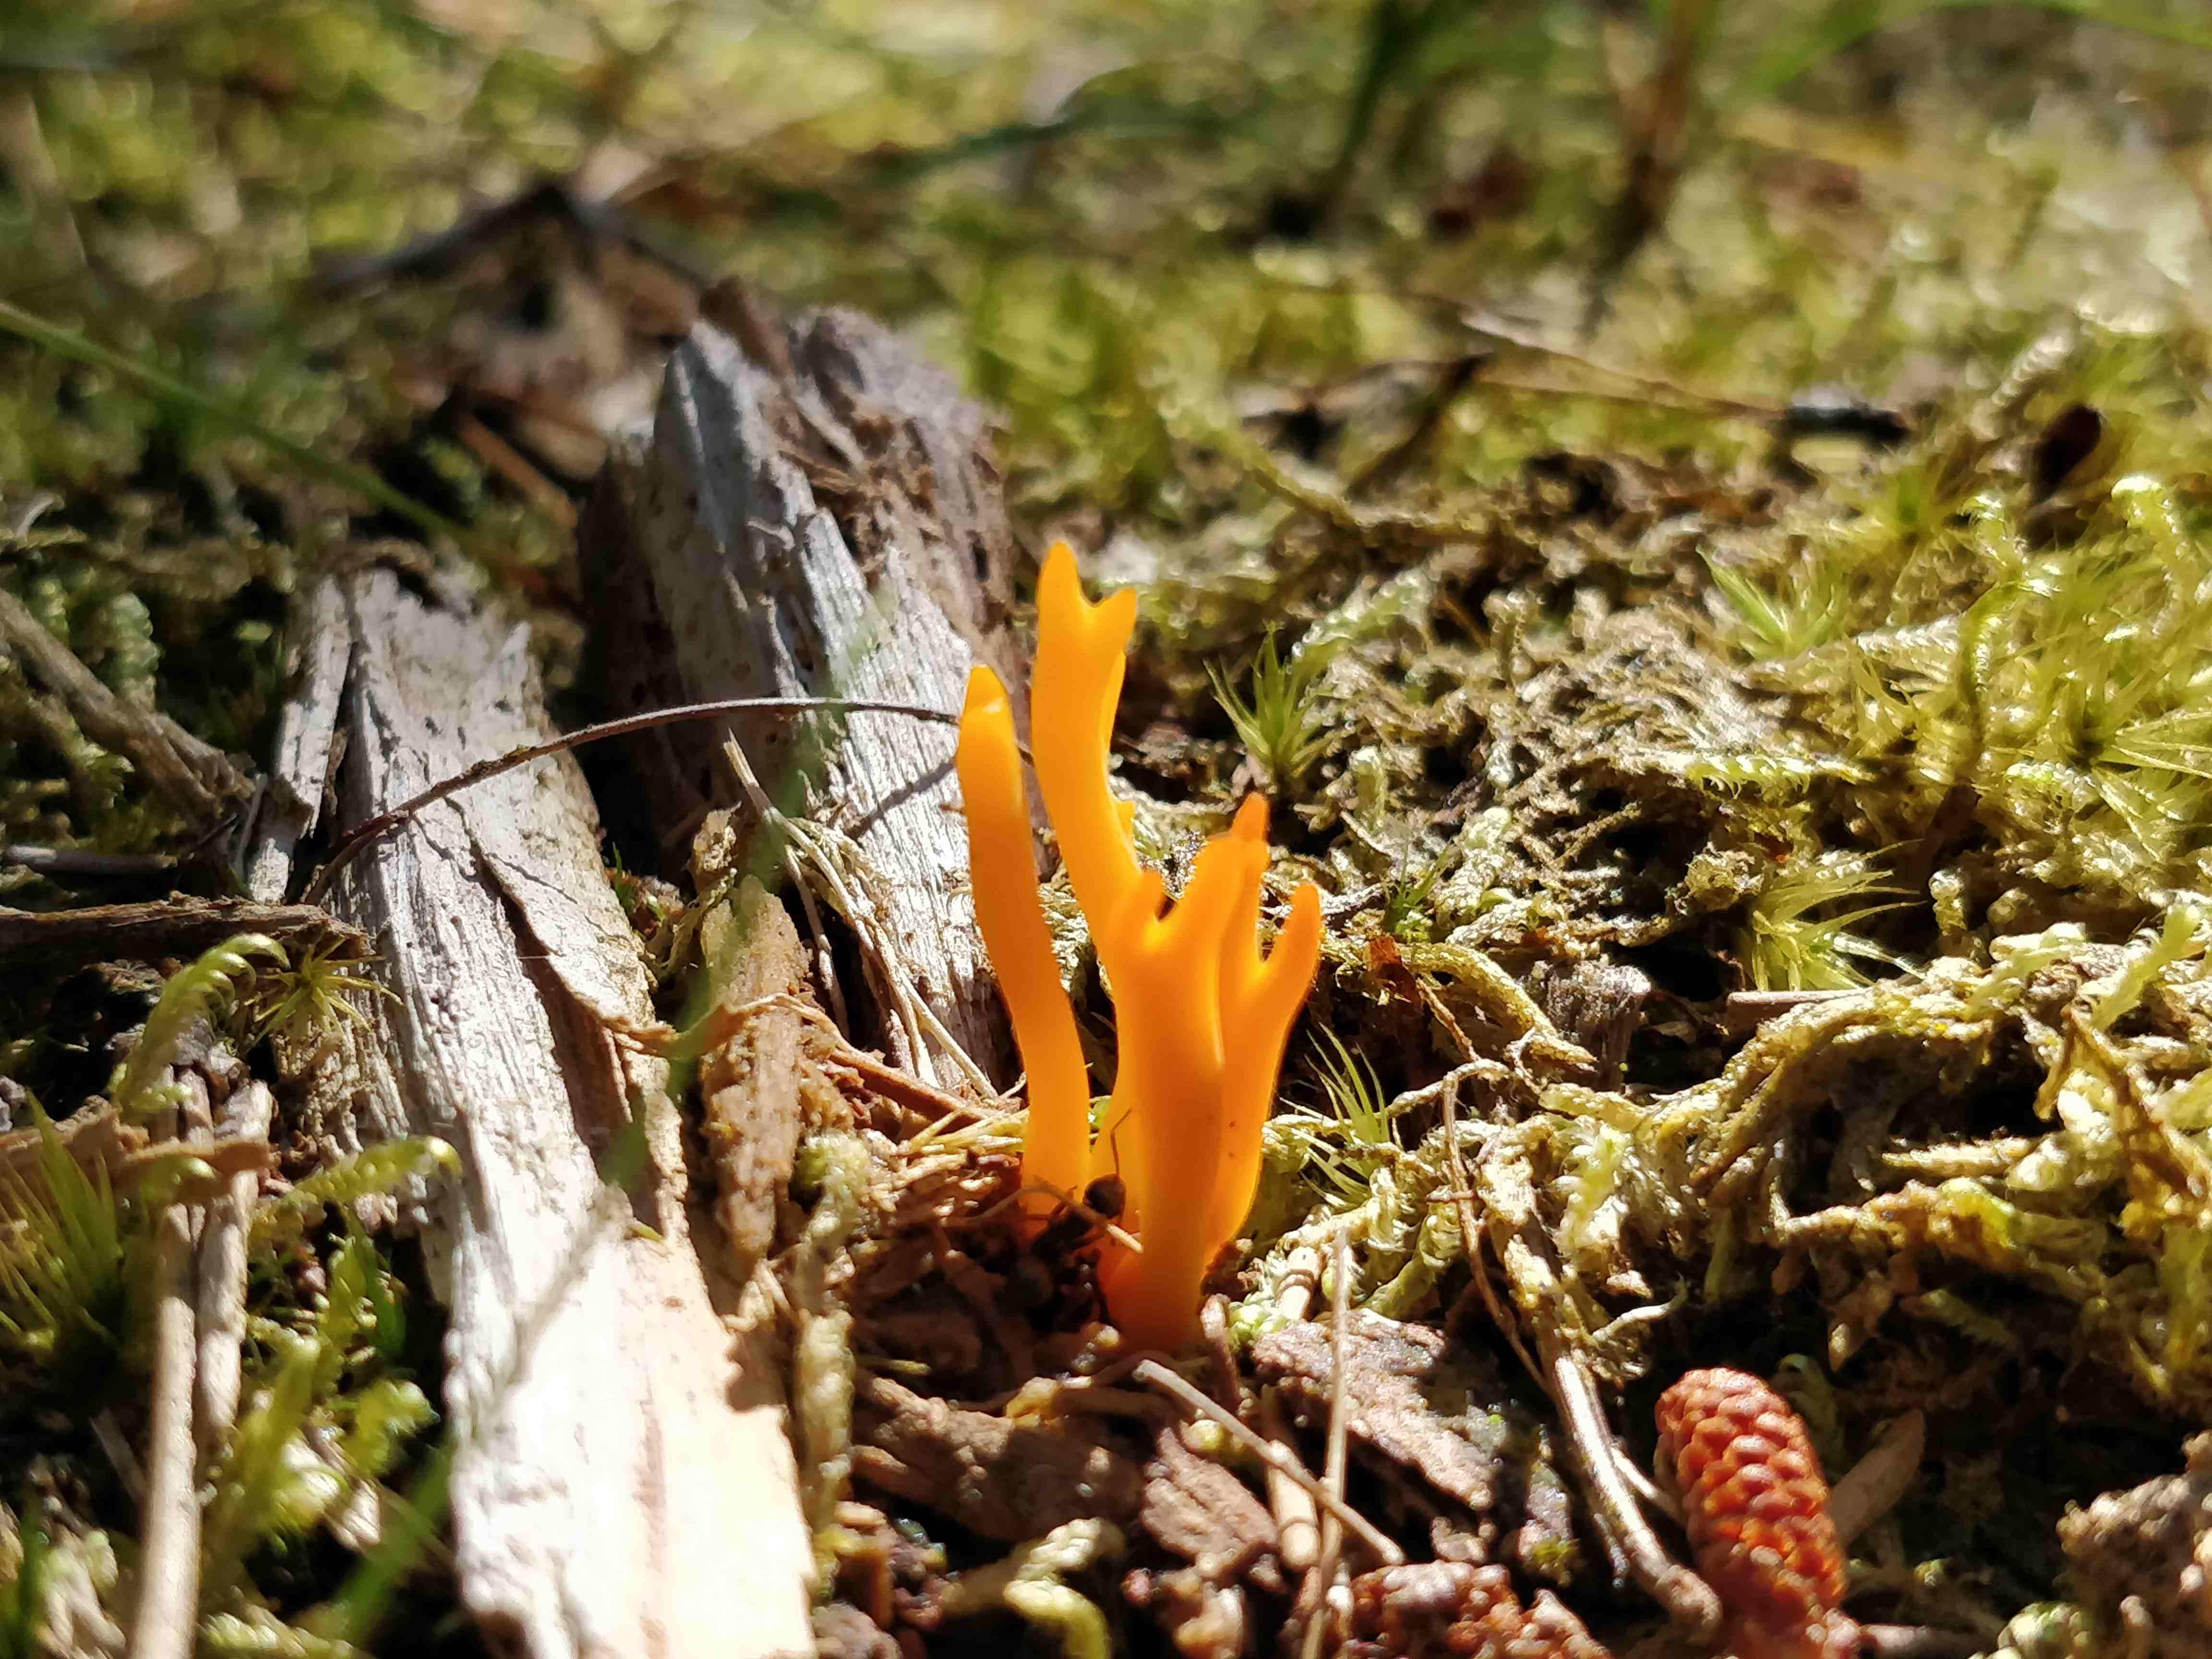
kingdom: Fungi
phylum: Basidiomycota
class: Dacrymycetes
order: Dacrymycetales
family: Dacrymycetaceae
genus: Calocera
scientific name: Calocera viscosa
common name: almindelig guldgaffel
